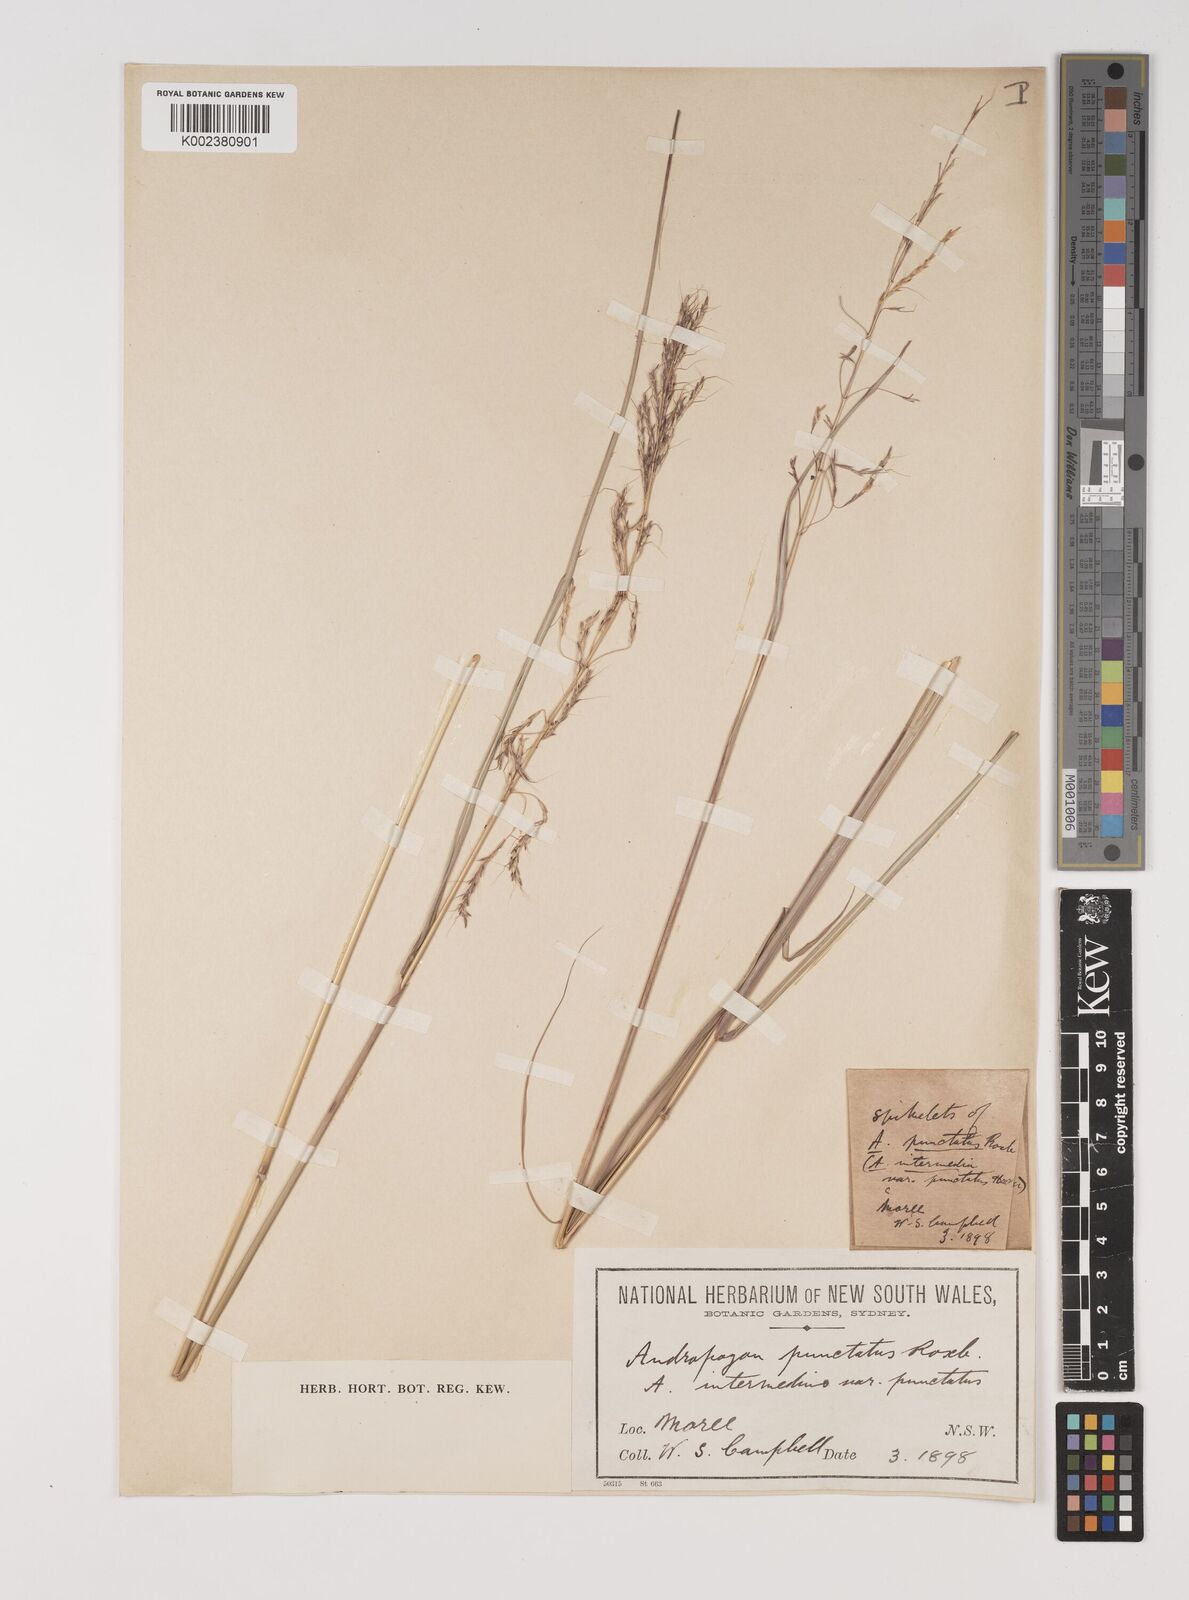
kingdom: Plantae
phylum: Tracheophyta
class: Liliopsida
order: Poales
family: Poaceae
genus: Bothriochloa
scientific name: Bothriochloa bladhii
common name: Caucasian bluestem
